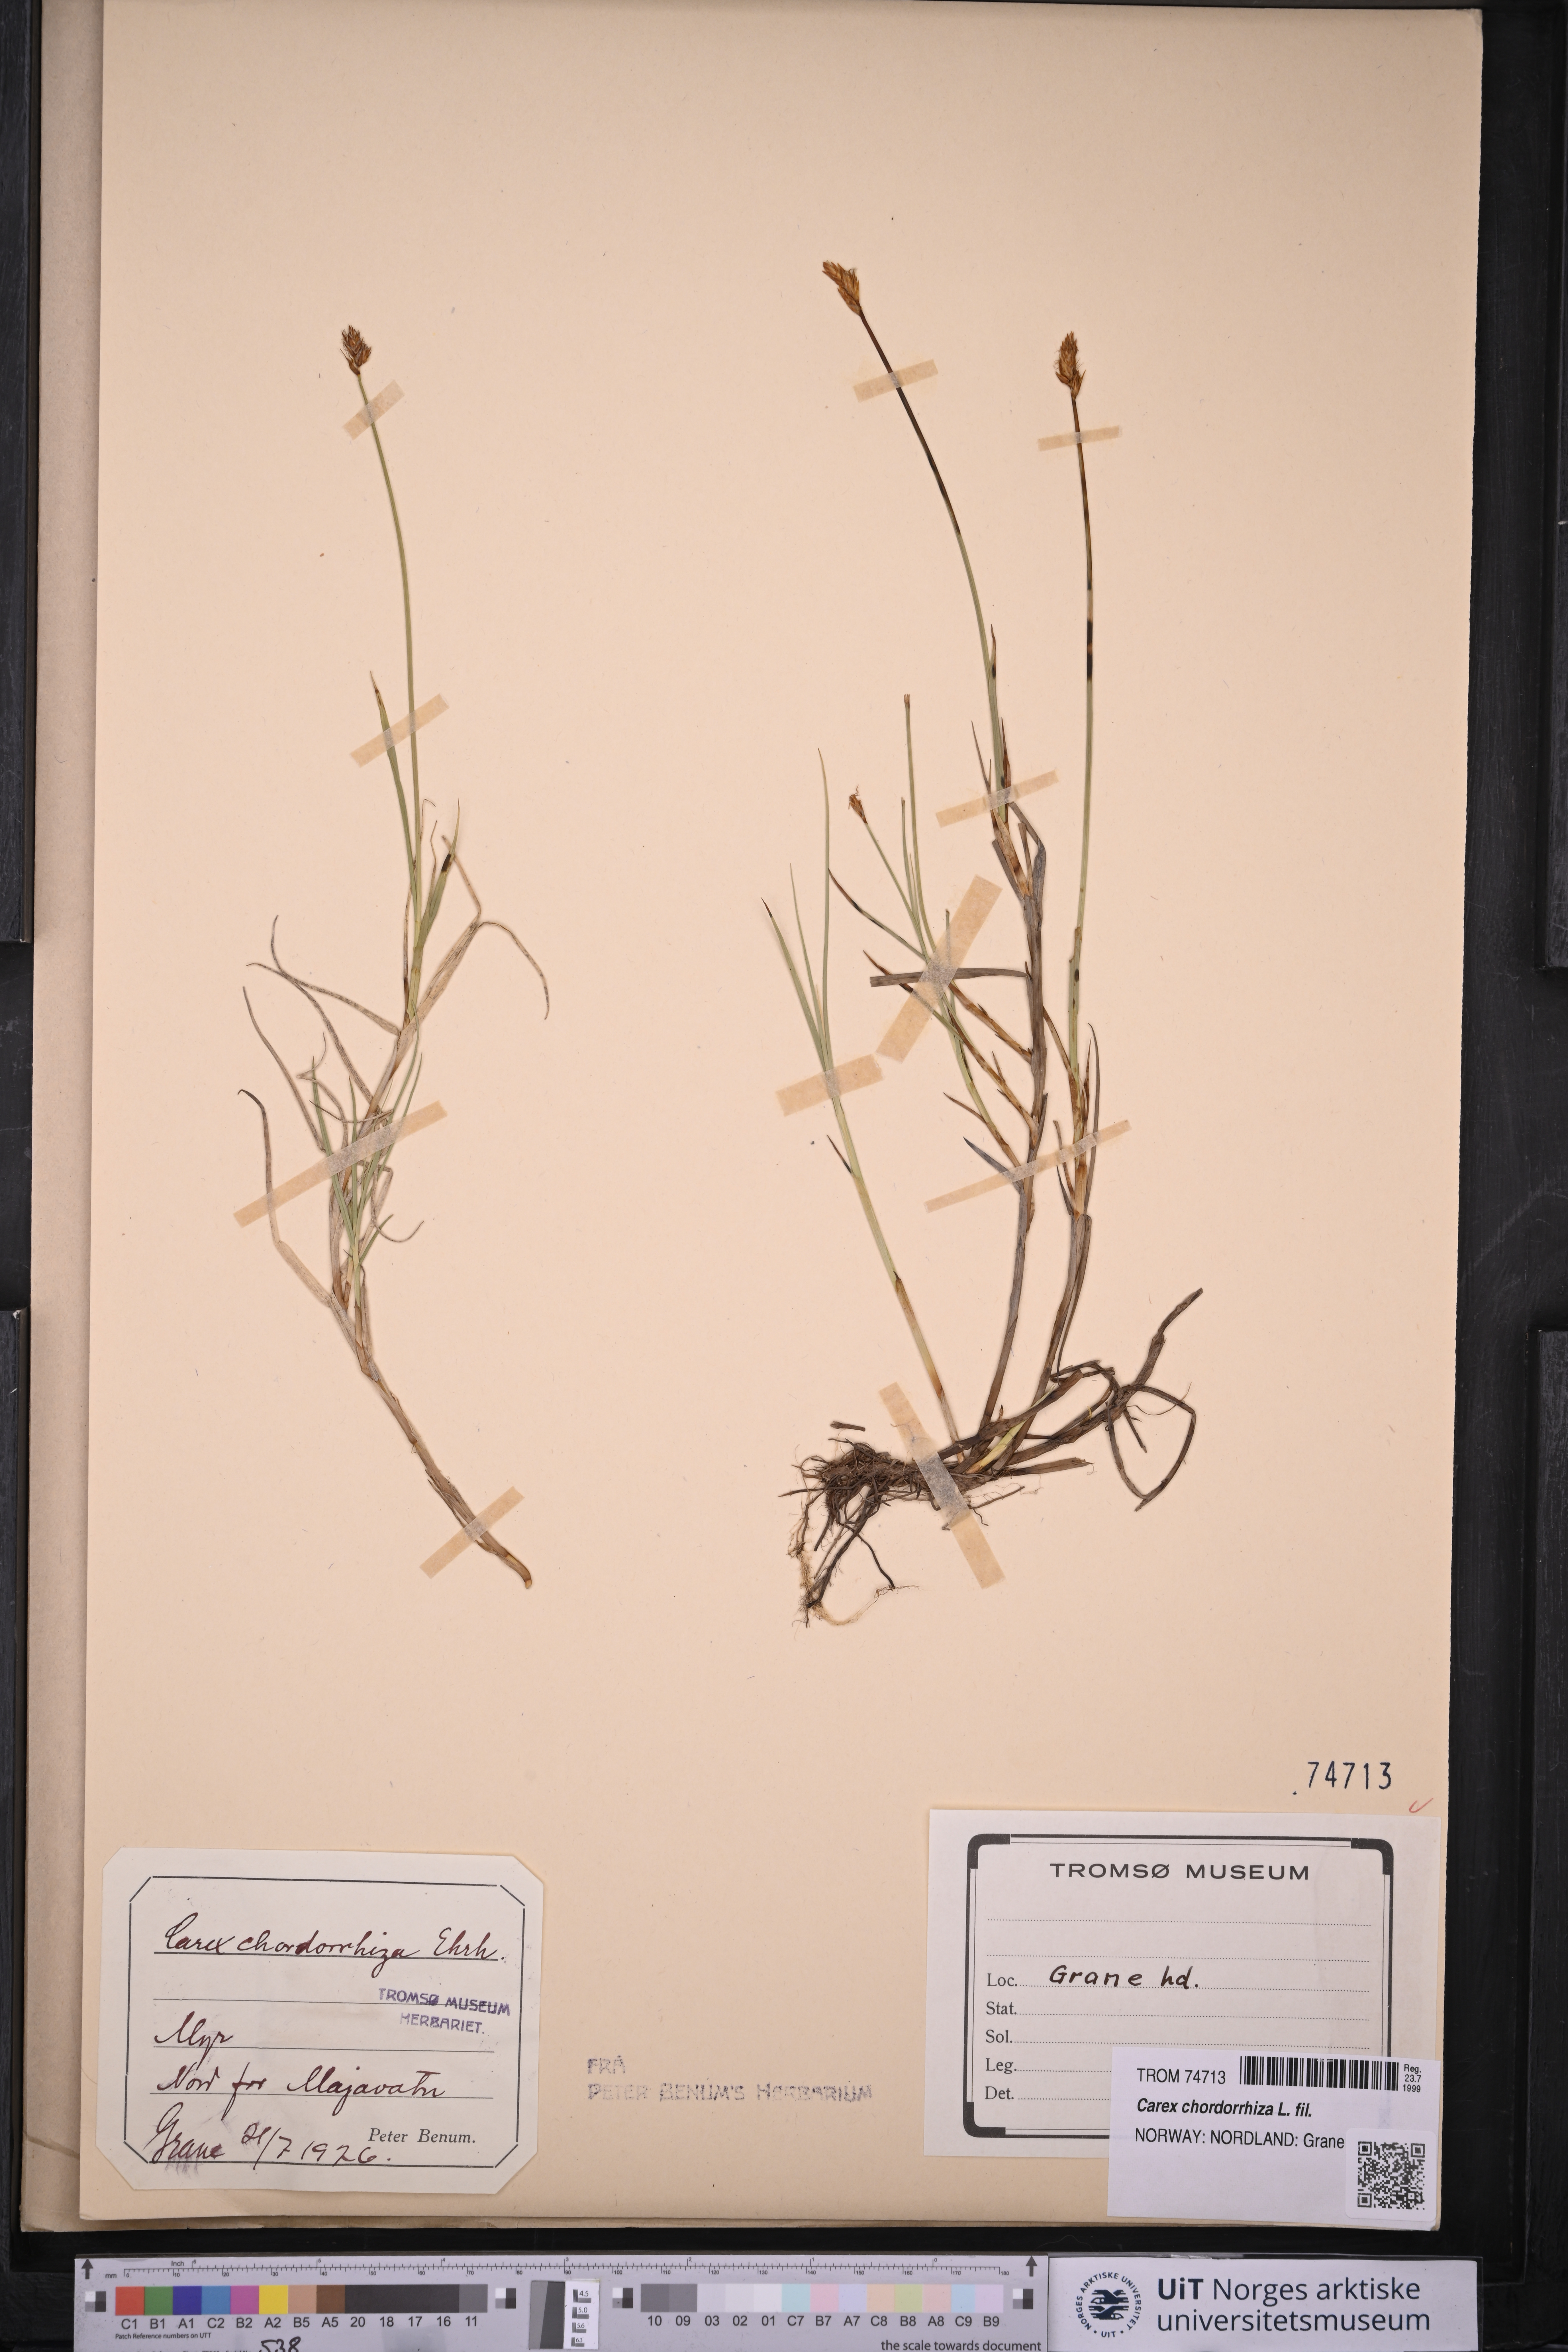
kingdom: Plantae
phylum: Tracheophyta
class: Liliopsida
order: Poales
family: Cyperaceae
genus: Carex
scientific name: Carex chordorrhiza
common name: String sedge
